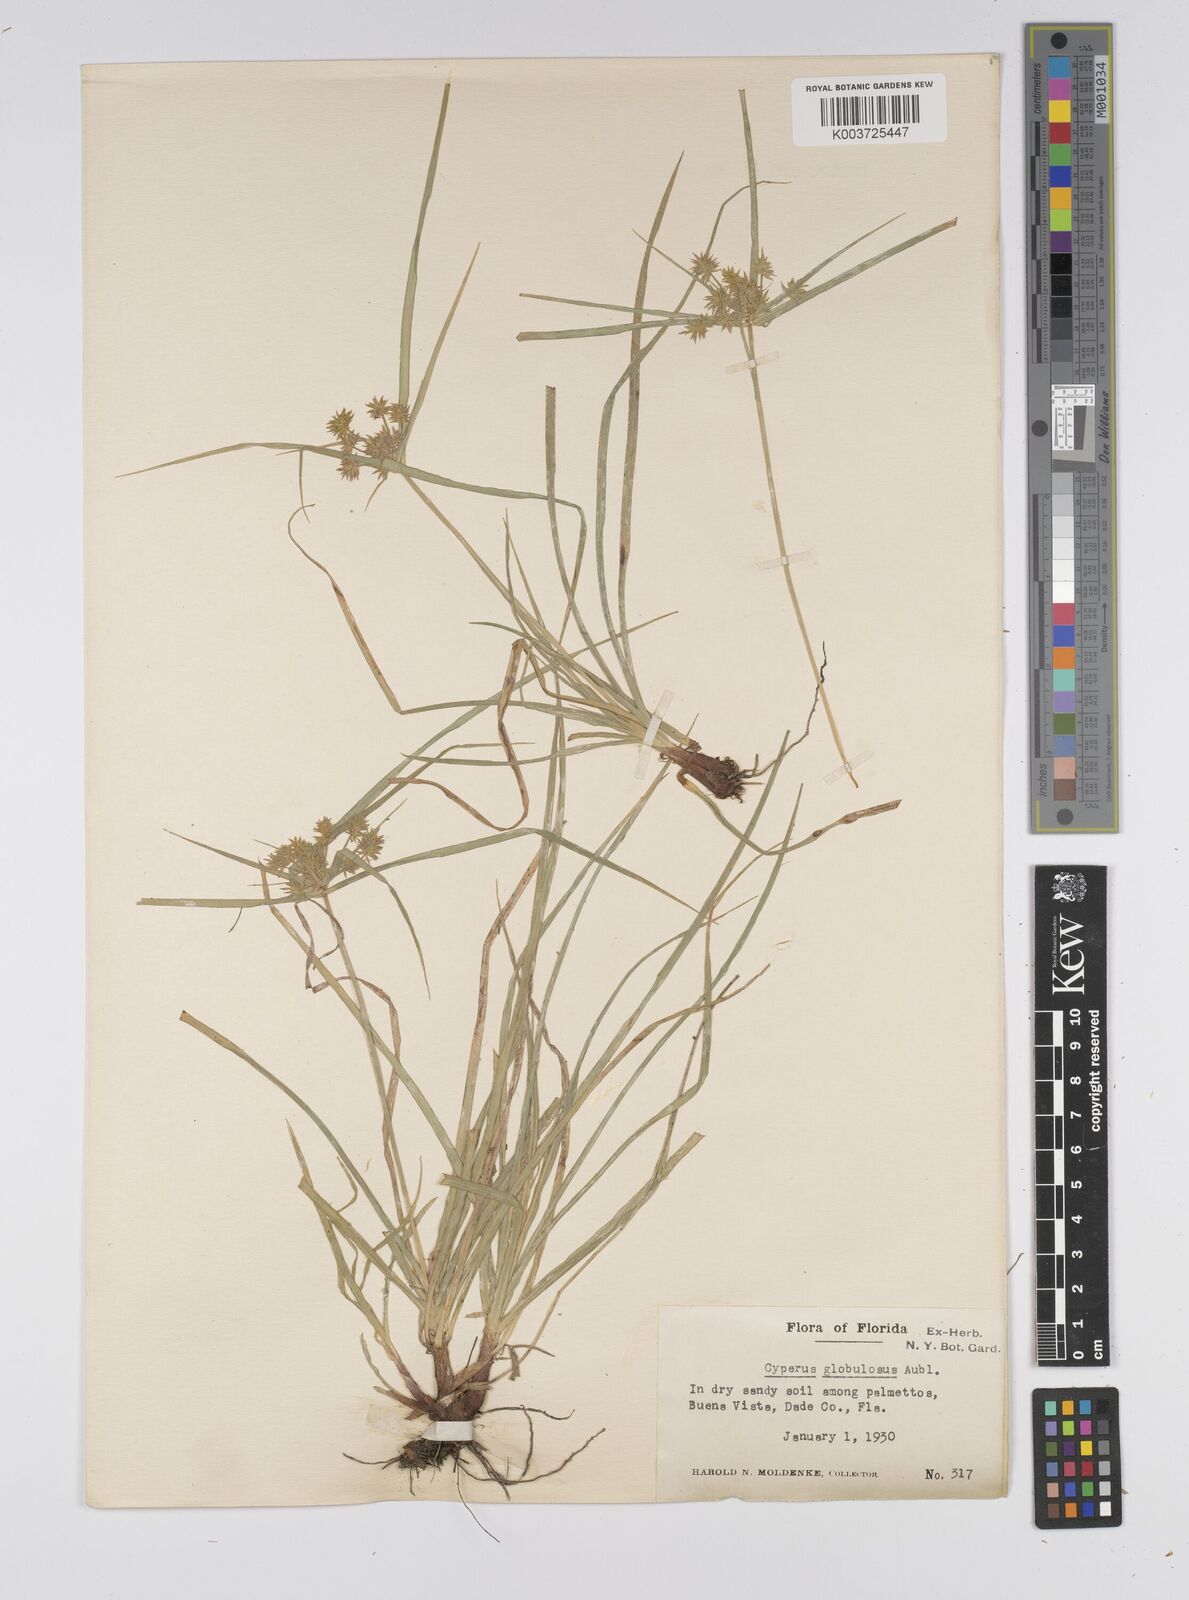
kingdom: Plantae
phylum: Tracheophyta
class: Liliopsida
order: Poales
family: Cyperaceae
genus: Cyperus
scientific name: Cyperus luzulae
